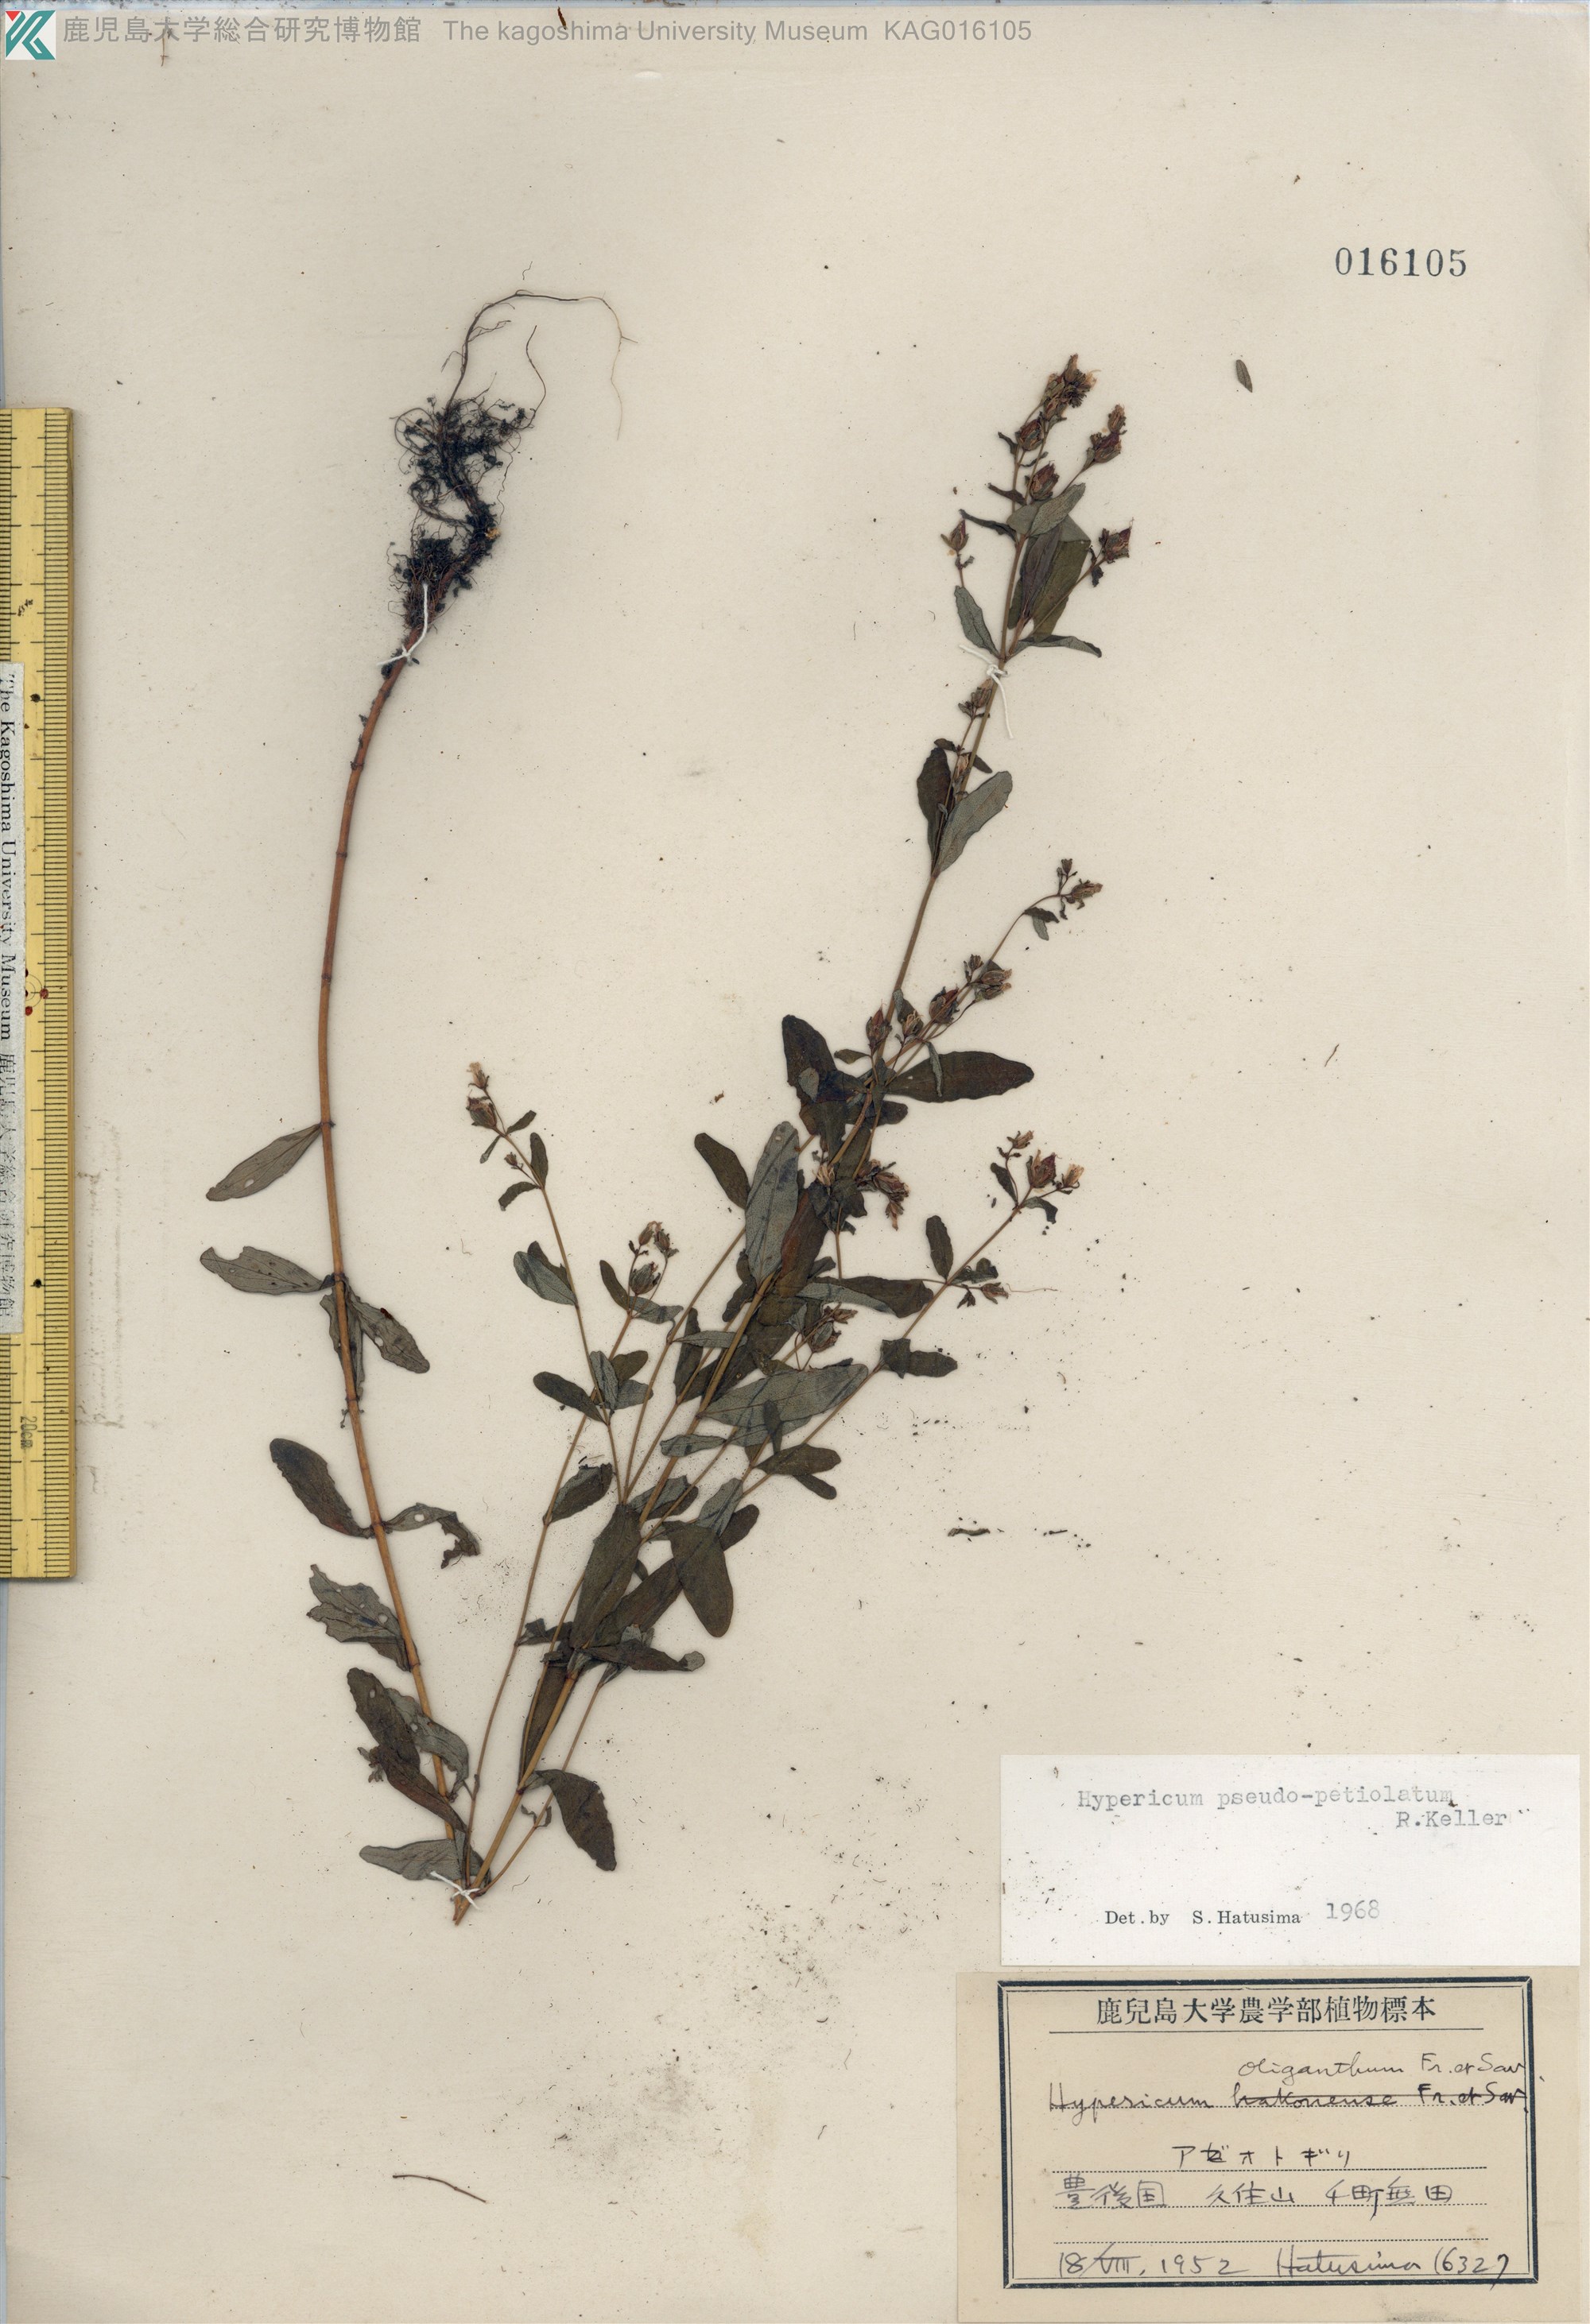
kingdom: Plantae
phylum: Tracheophyta
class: Magnoliopsida
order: Malpighiales
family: Hypericaceae
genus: Hypericum
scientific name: Hypericum pseudopetiolatum
